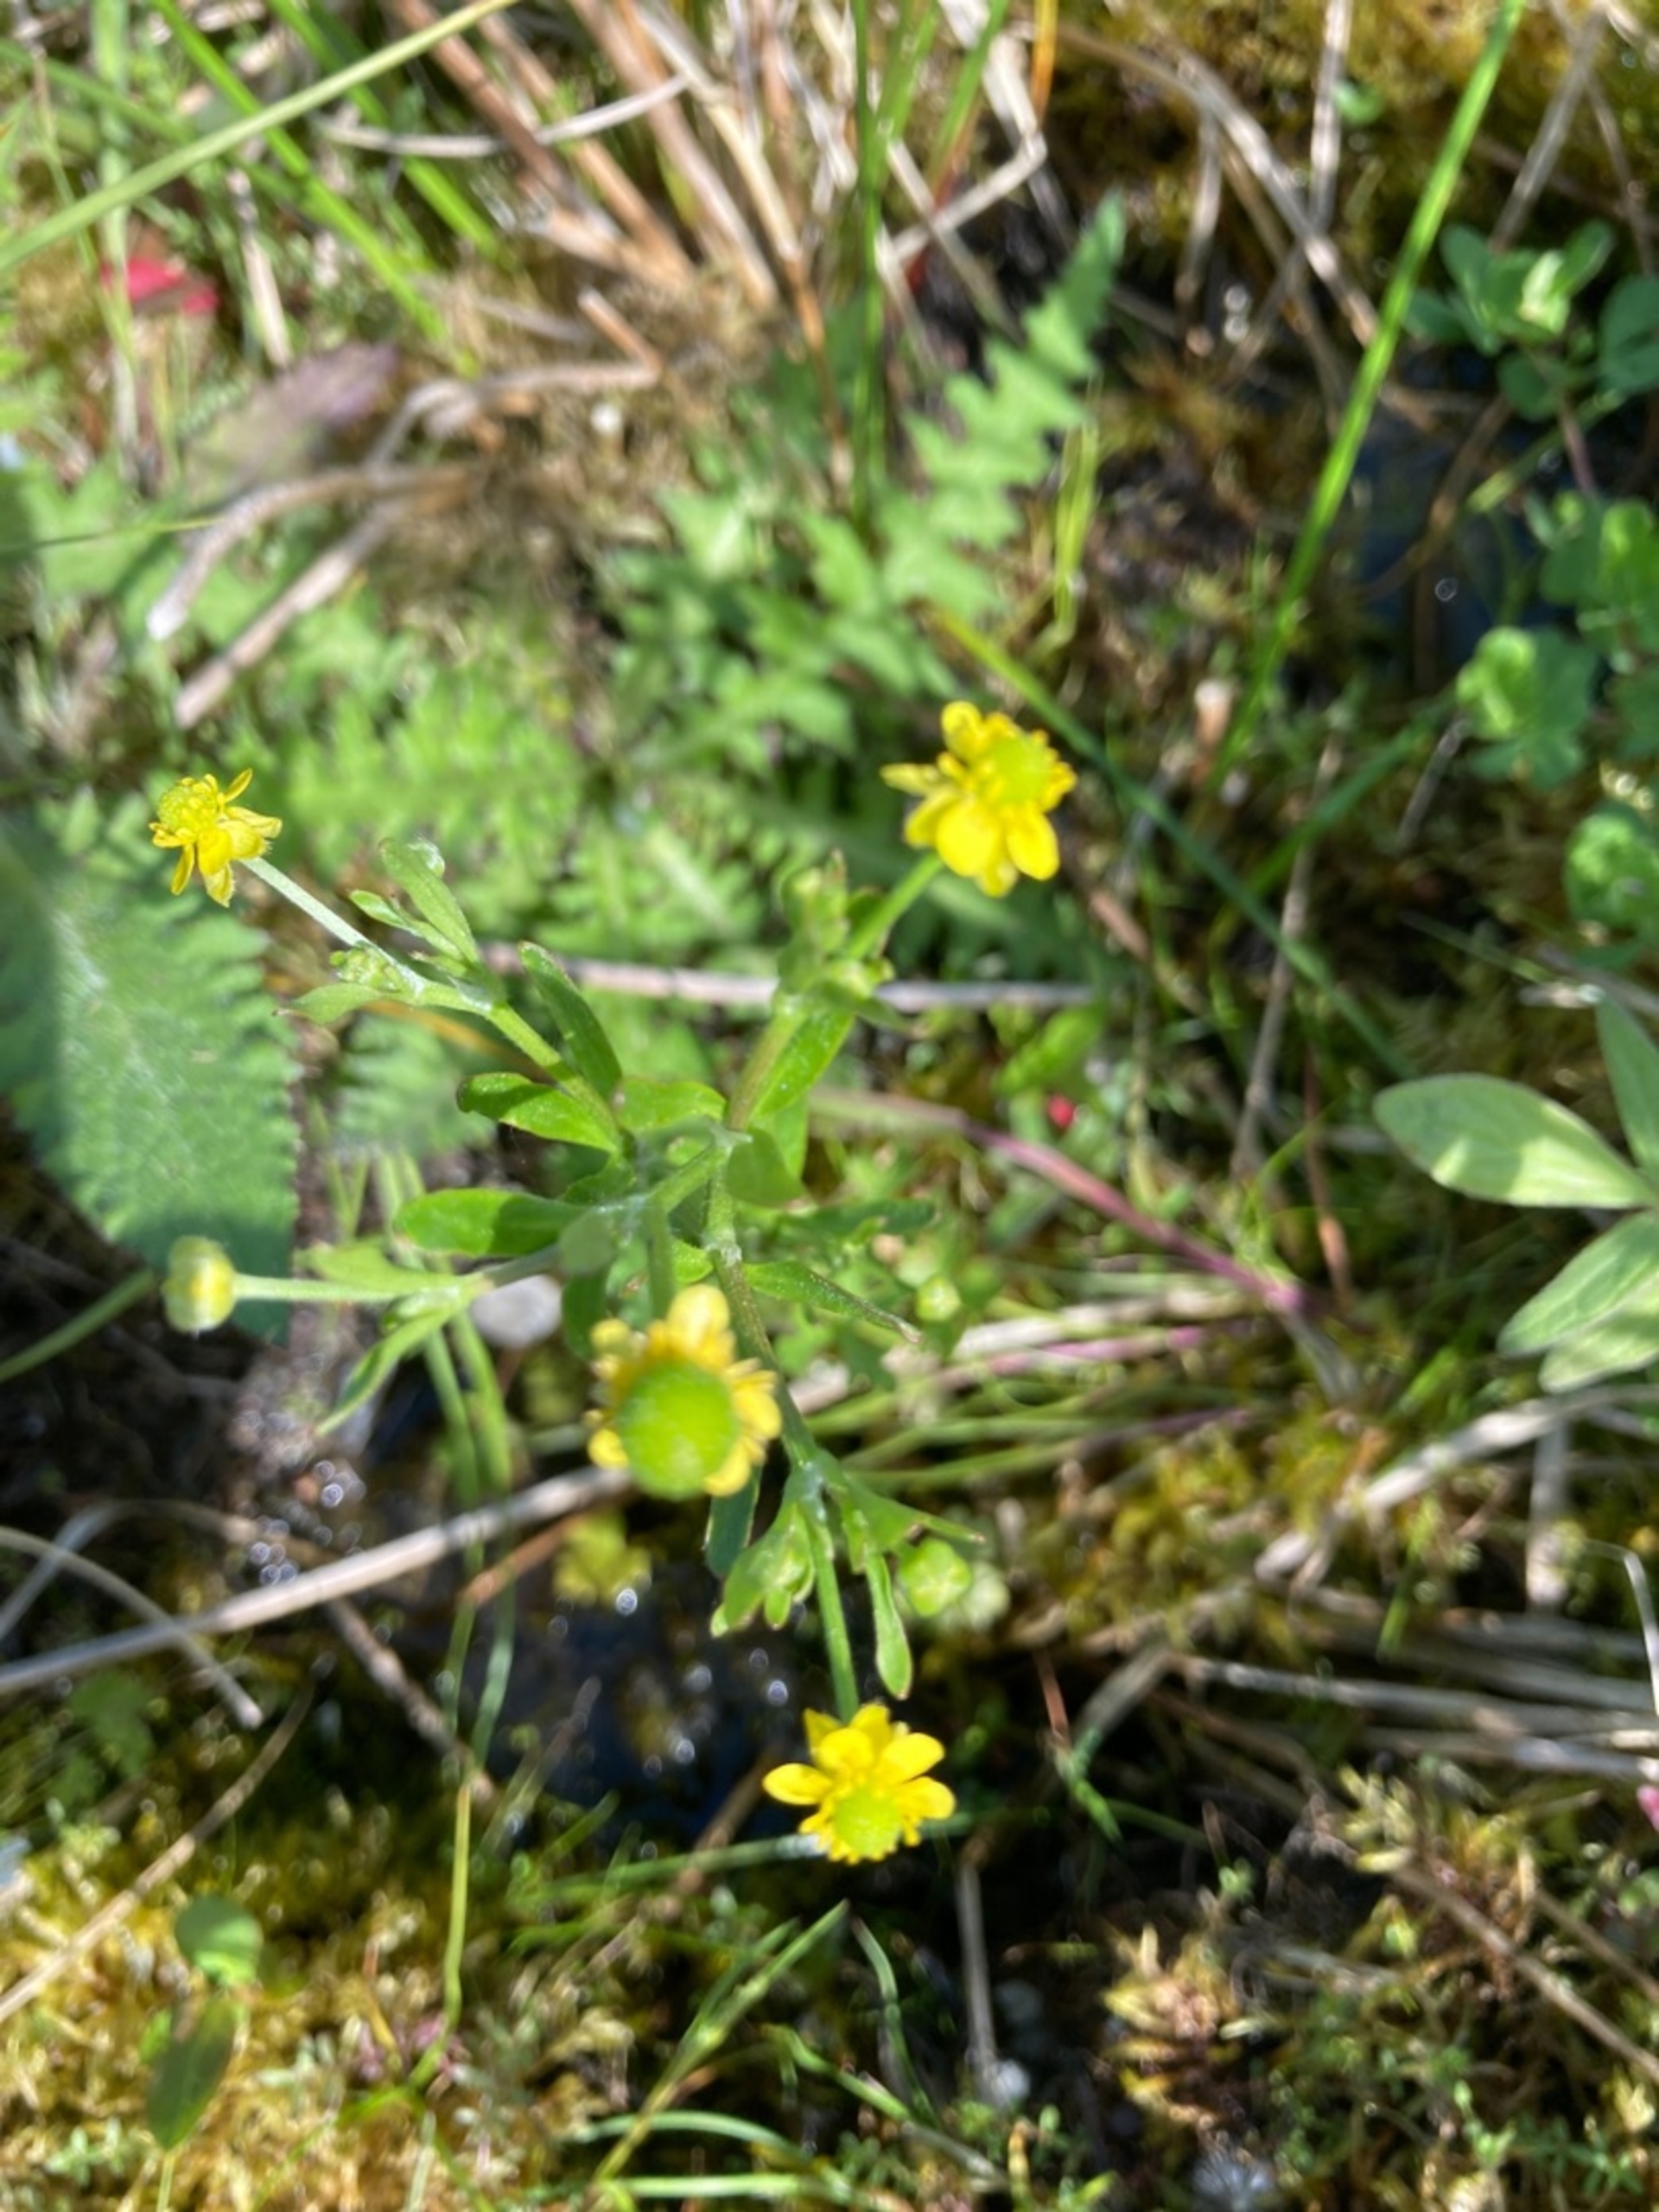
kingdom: Plantae
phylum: Tracheophyta
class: Magnoliopsida
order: Ranunculales
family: Ranunculaceae
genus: Ranunculus
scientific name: Ranunculus sceleratus
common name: Tigger-ranunkel
